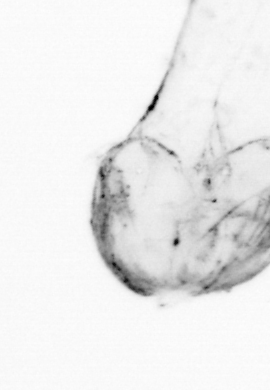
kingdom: Animalia
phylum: Chaetognatha
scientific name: Chaetognatha
